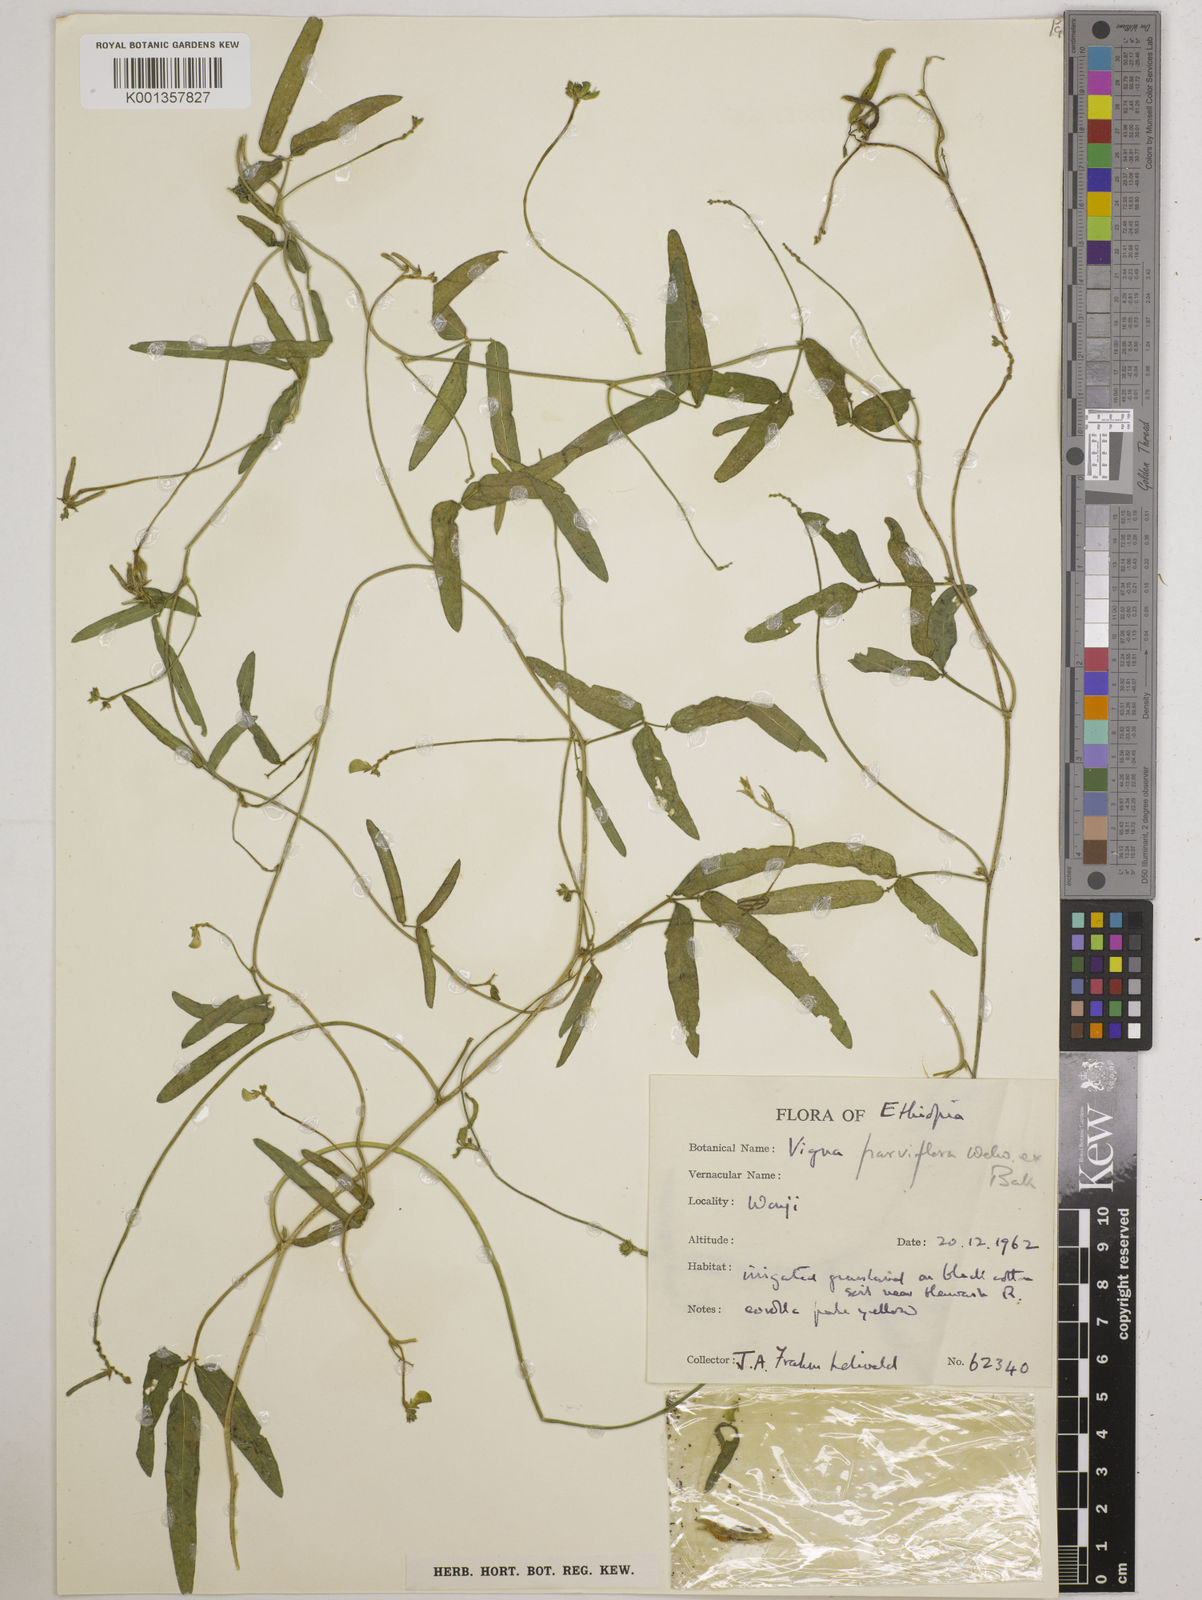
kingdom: Plantae
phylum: Tracheophyta
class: Magnoliopsida
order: Fabales
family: Fabaceae
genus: Vigna
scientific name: Vigna
